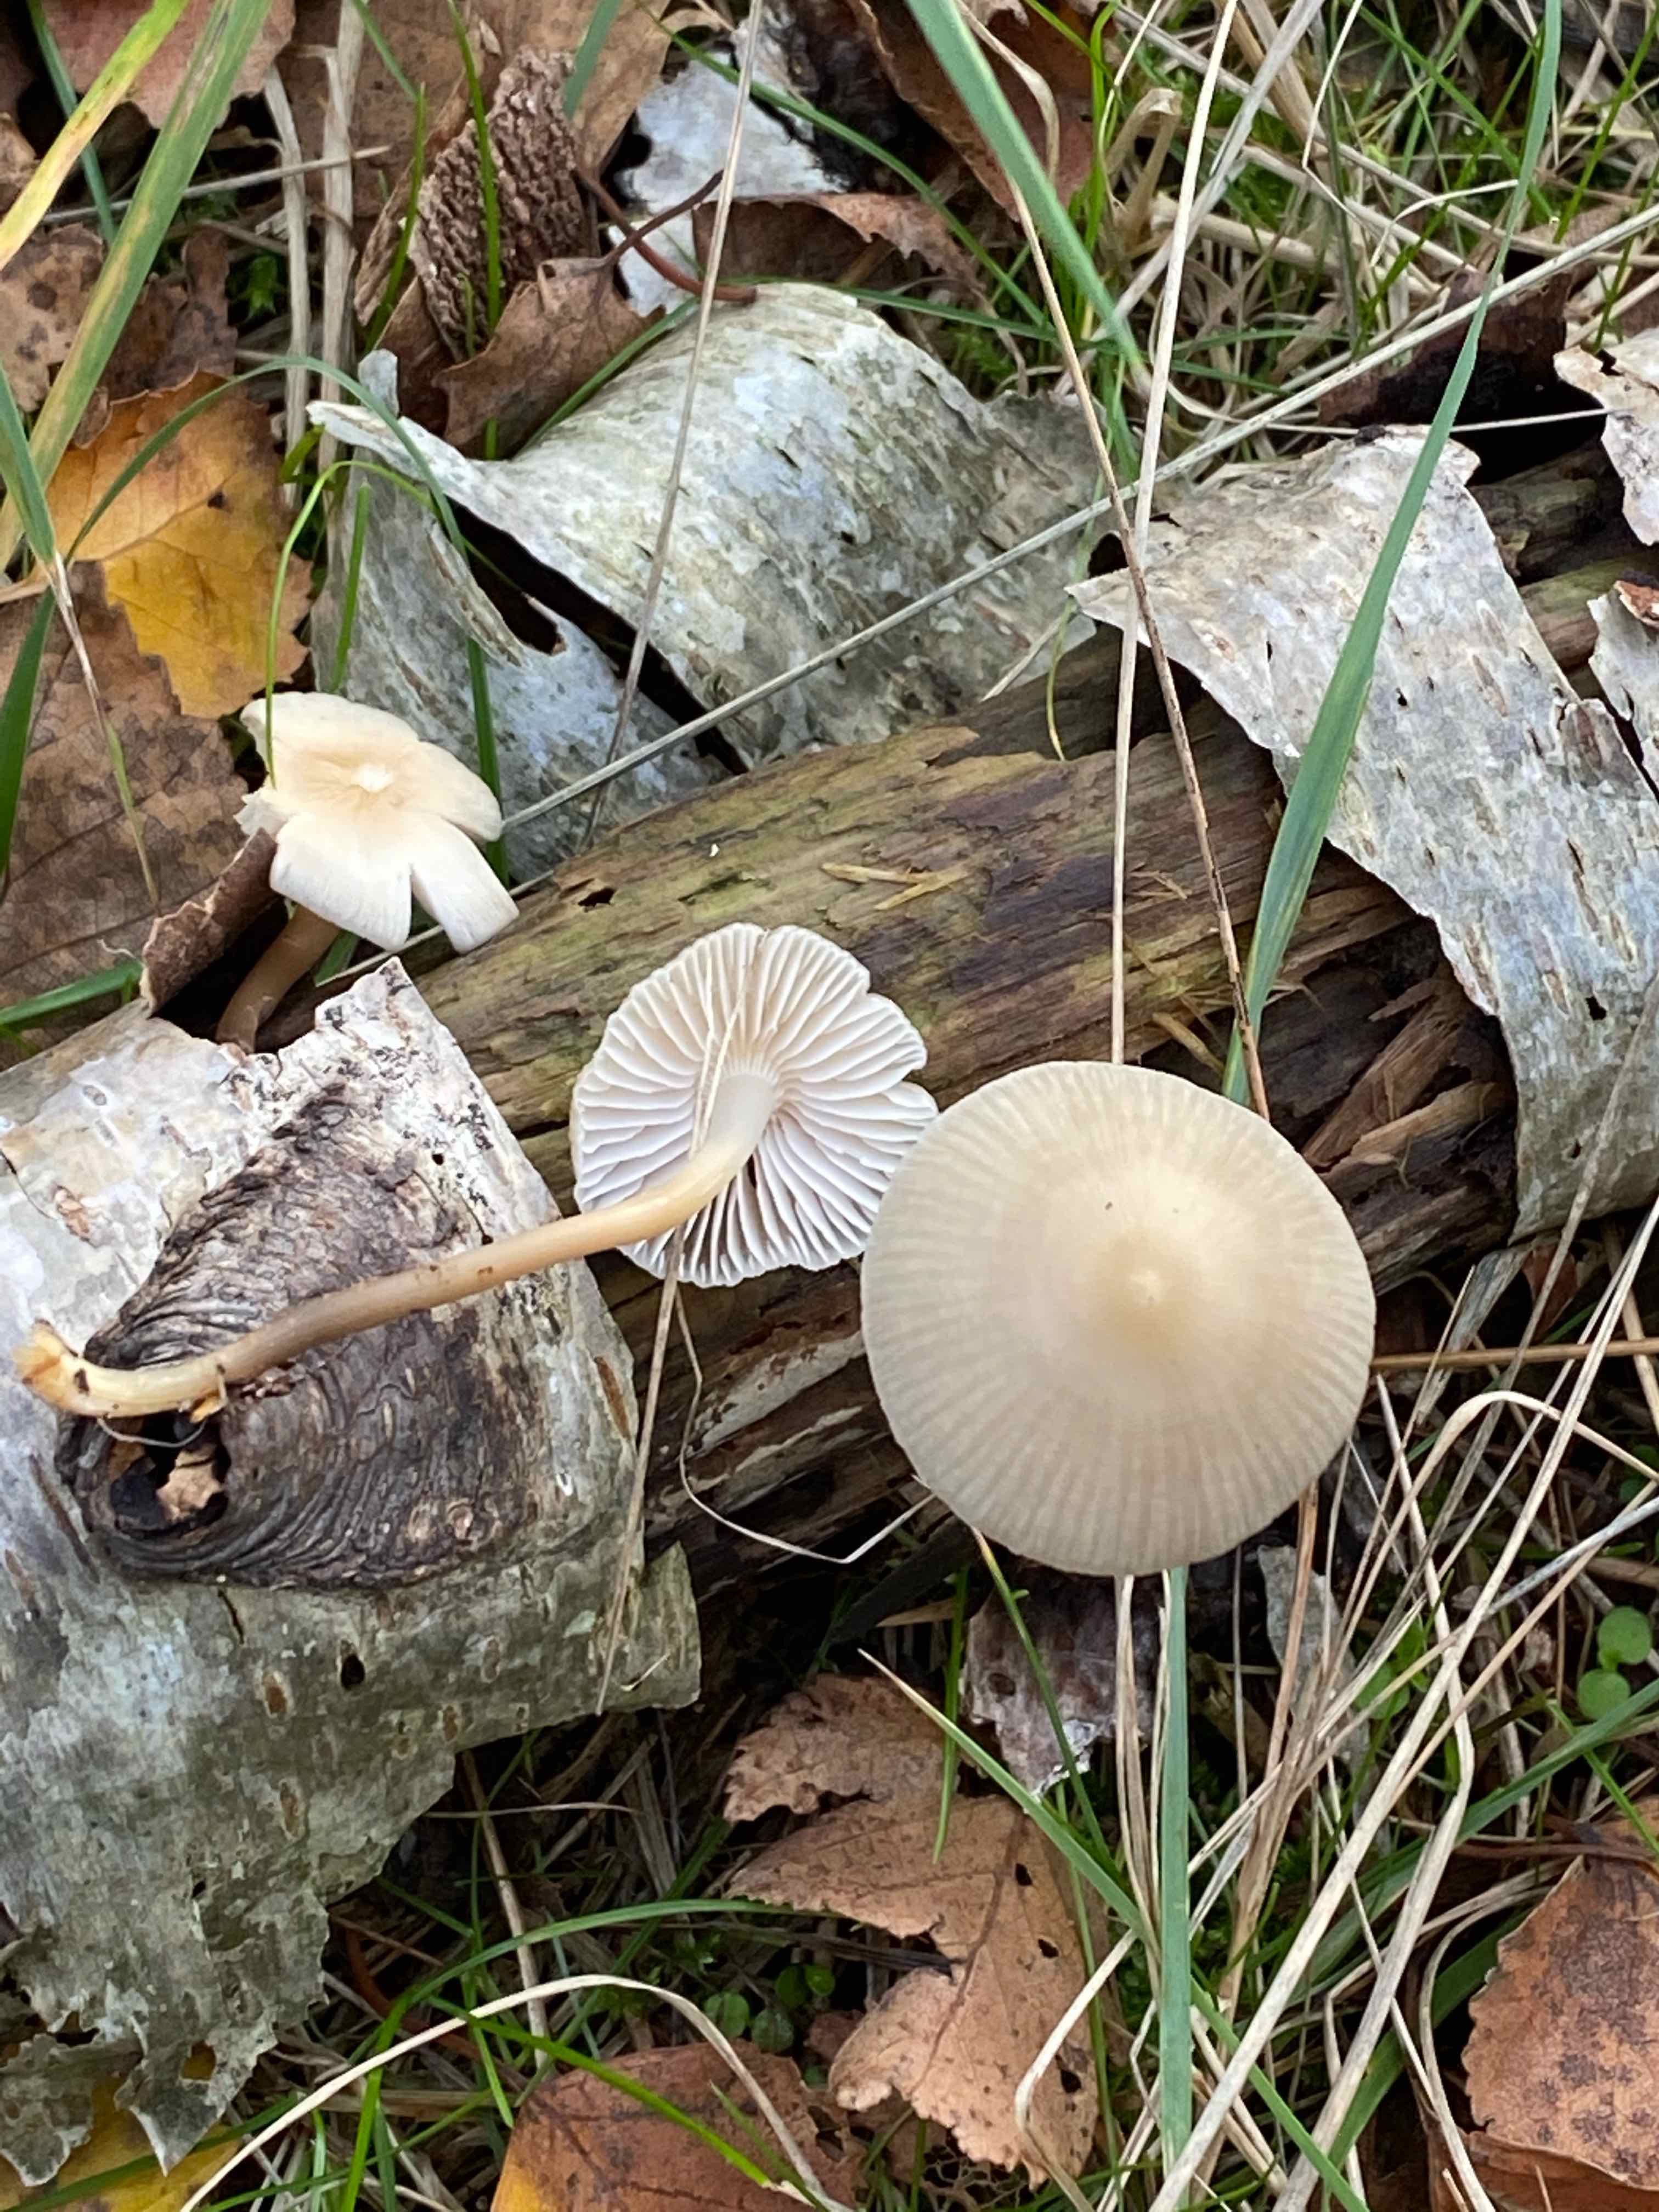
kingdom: Fungi
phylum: Basidiomycota
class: Agaricomycetes
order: Agaricales
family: Mycenaceae
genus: Mycena
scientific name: Mycena galericulata
